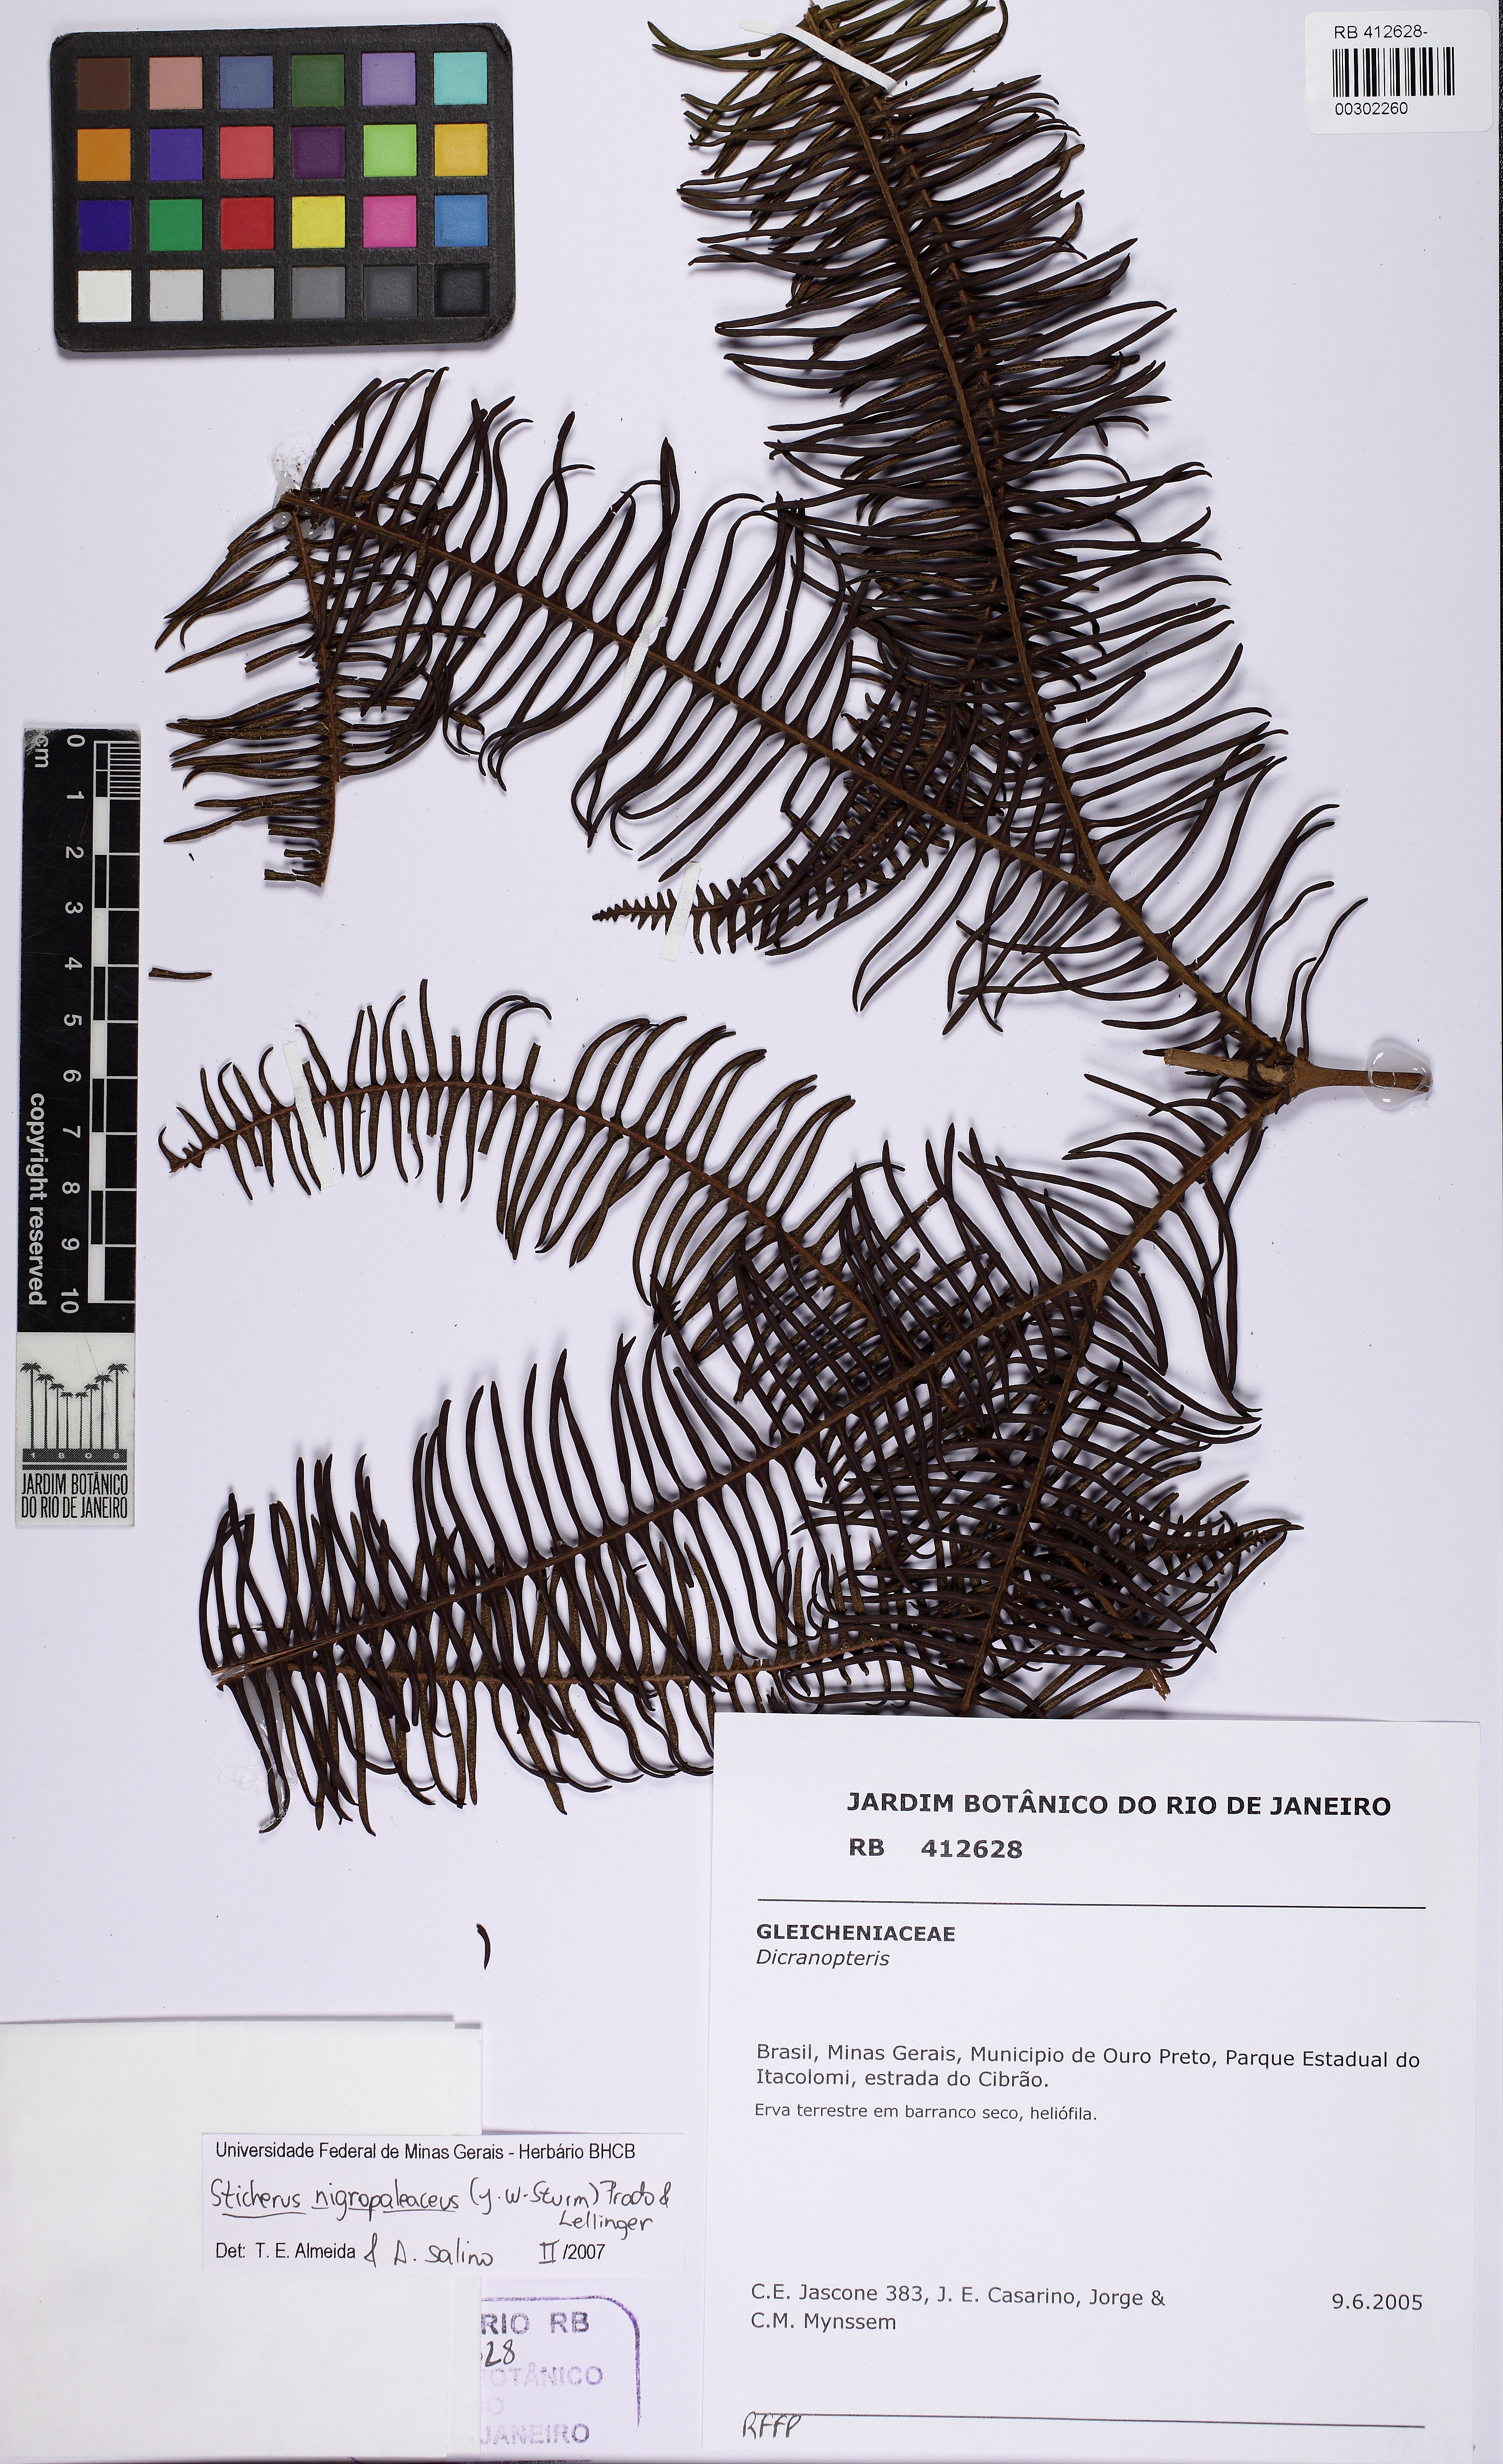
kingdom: Plantae
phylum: Tracheophyta
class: Polypodiopsida
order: Gleicheniales
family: Gleicheniaceae
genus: Sticherus
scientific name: Sticherus nigropaleaceus
